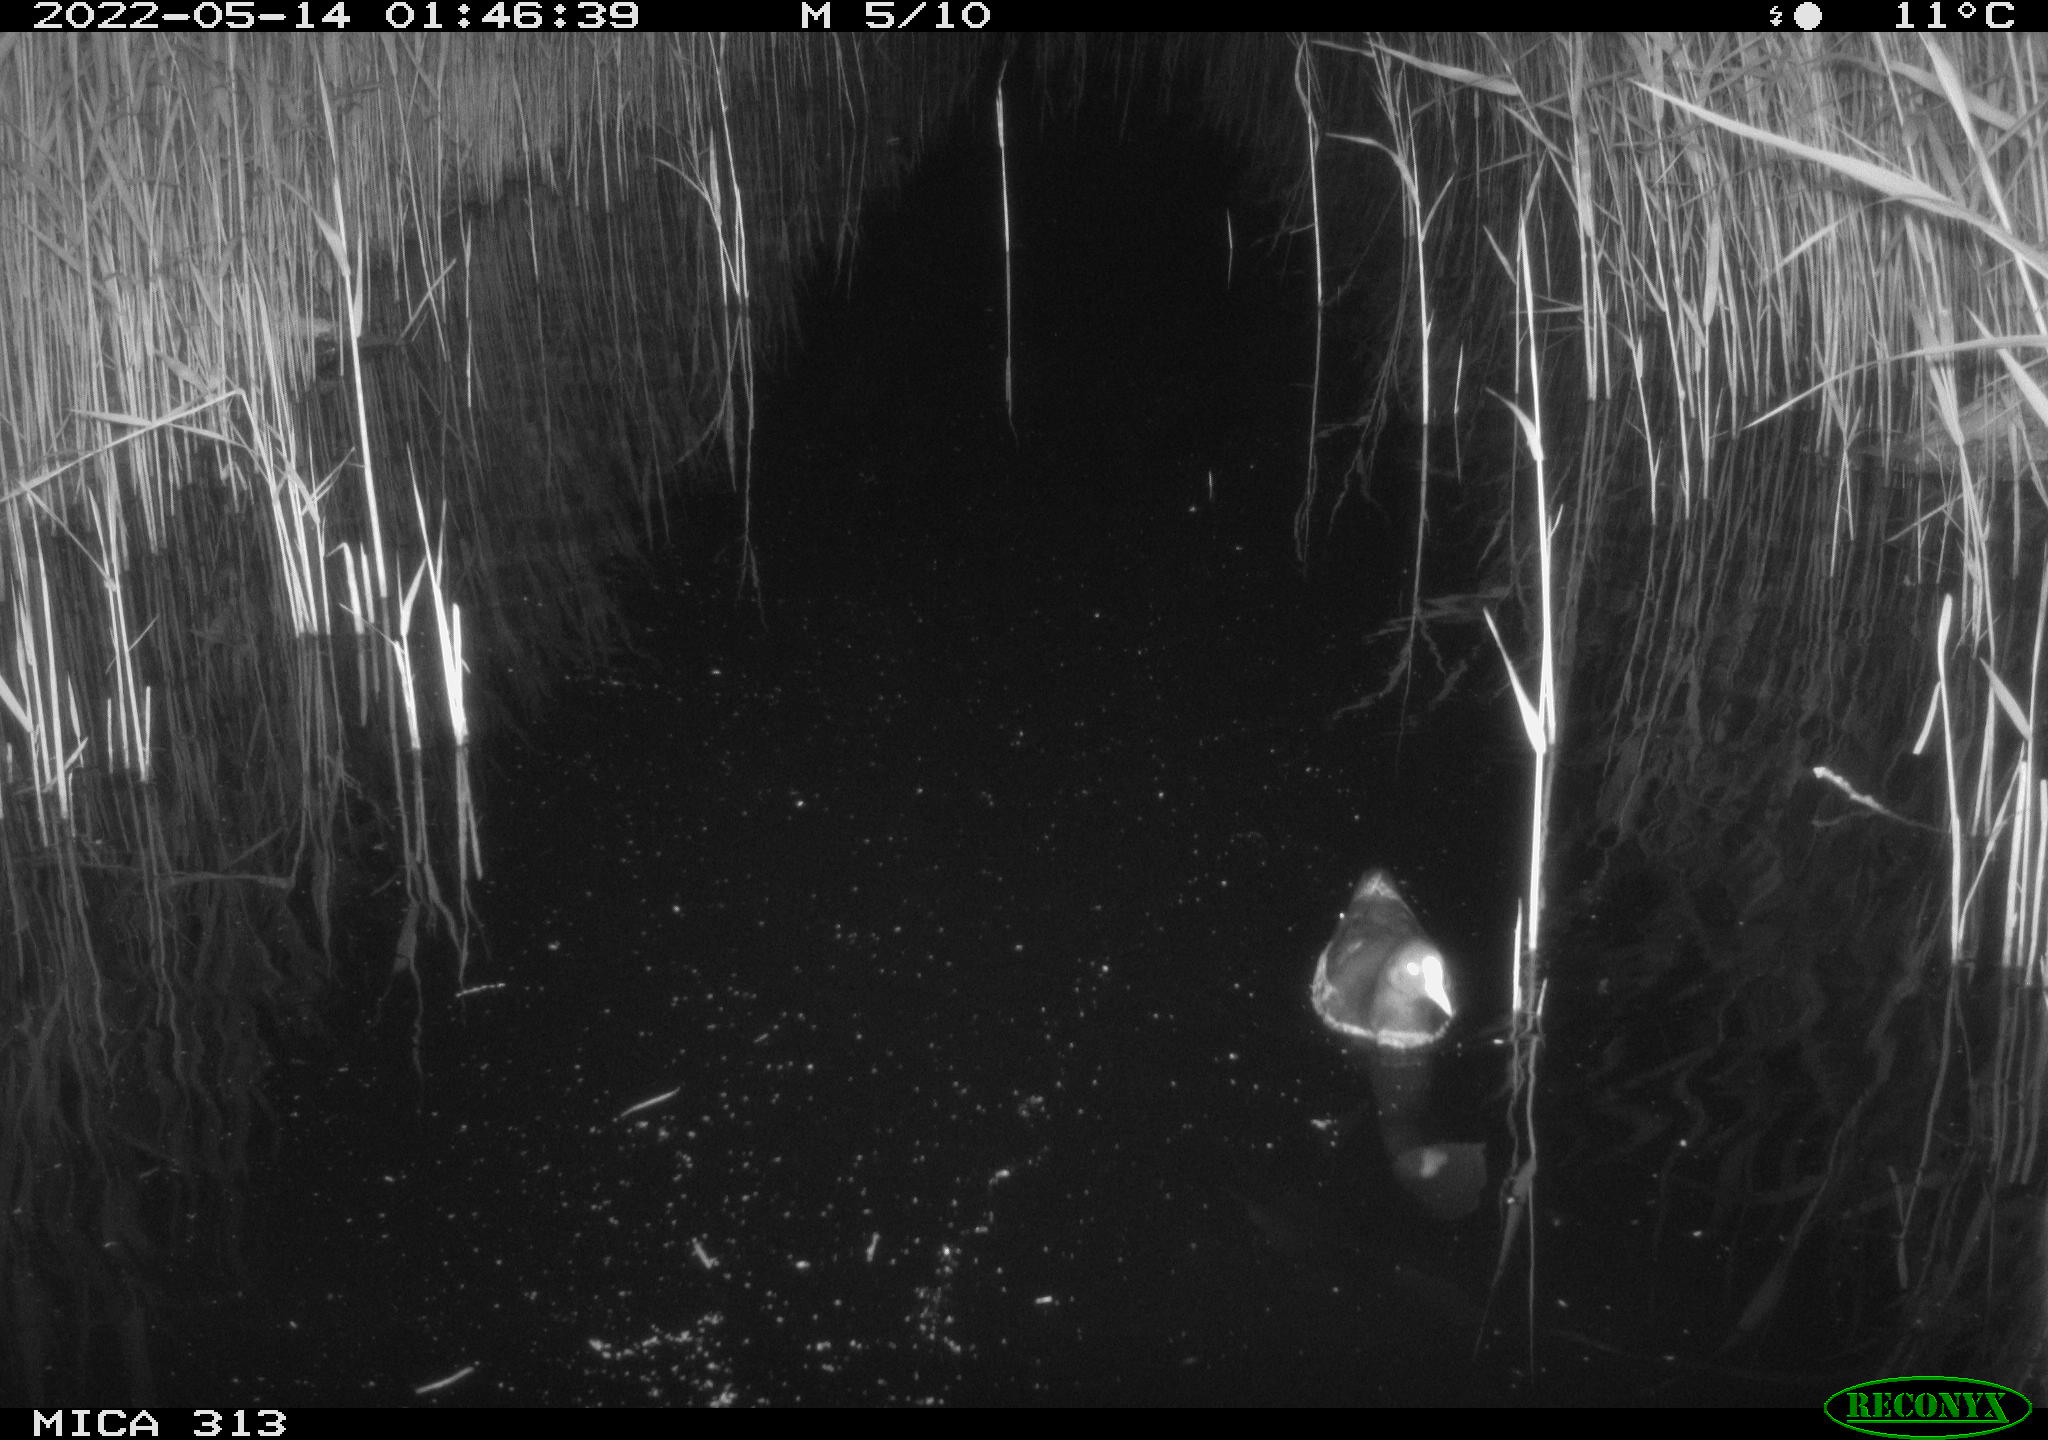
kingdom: Animalia
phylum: Chordata
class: Aves
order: Gruiformes
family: Rallidae
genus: Gallinula
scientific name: Gallinula chloropus
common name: Common moorhen
